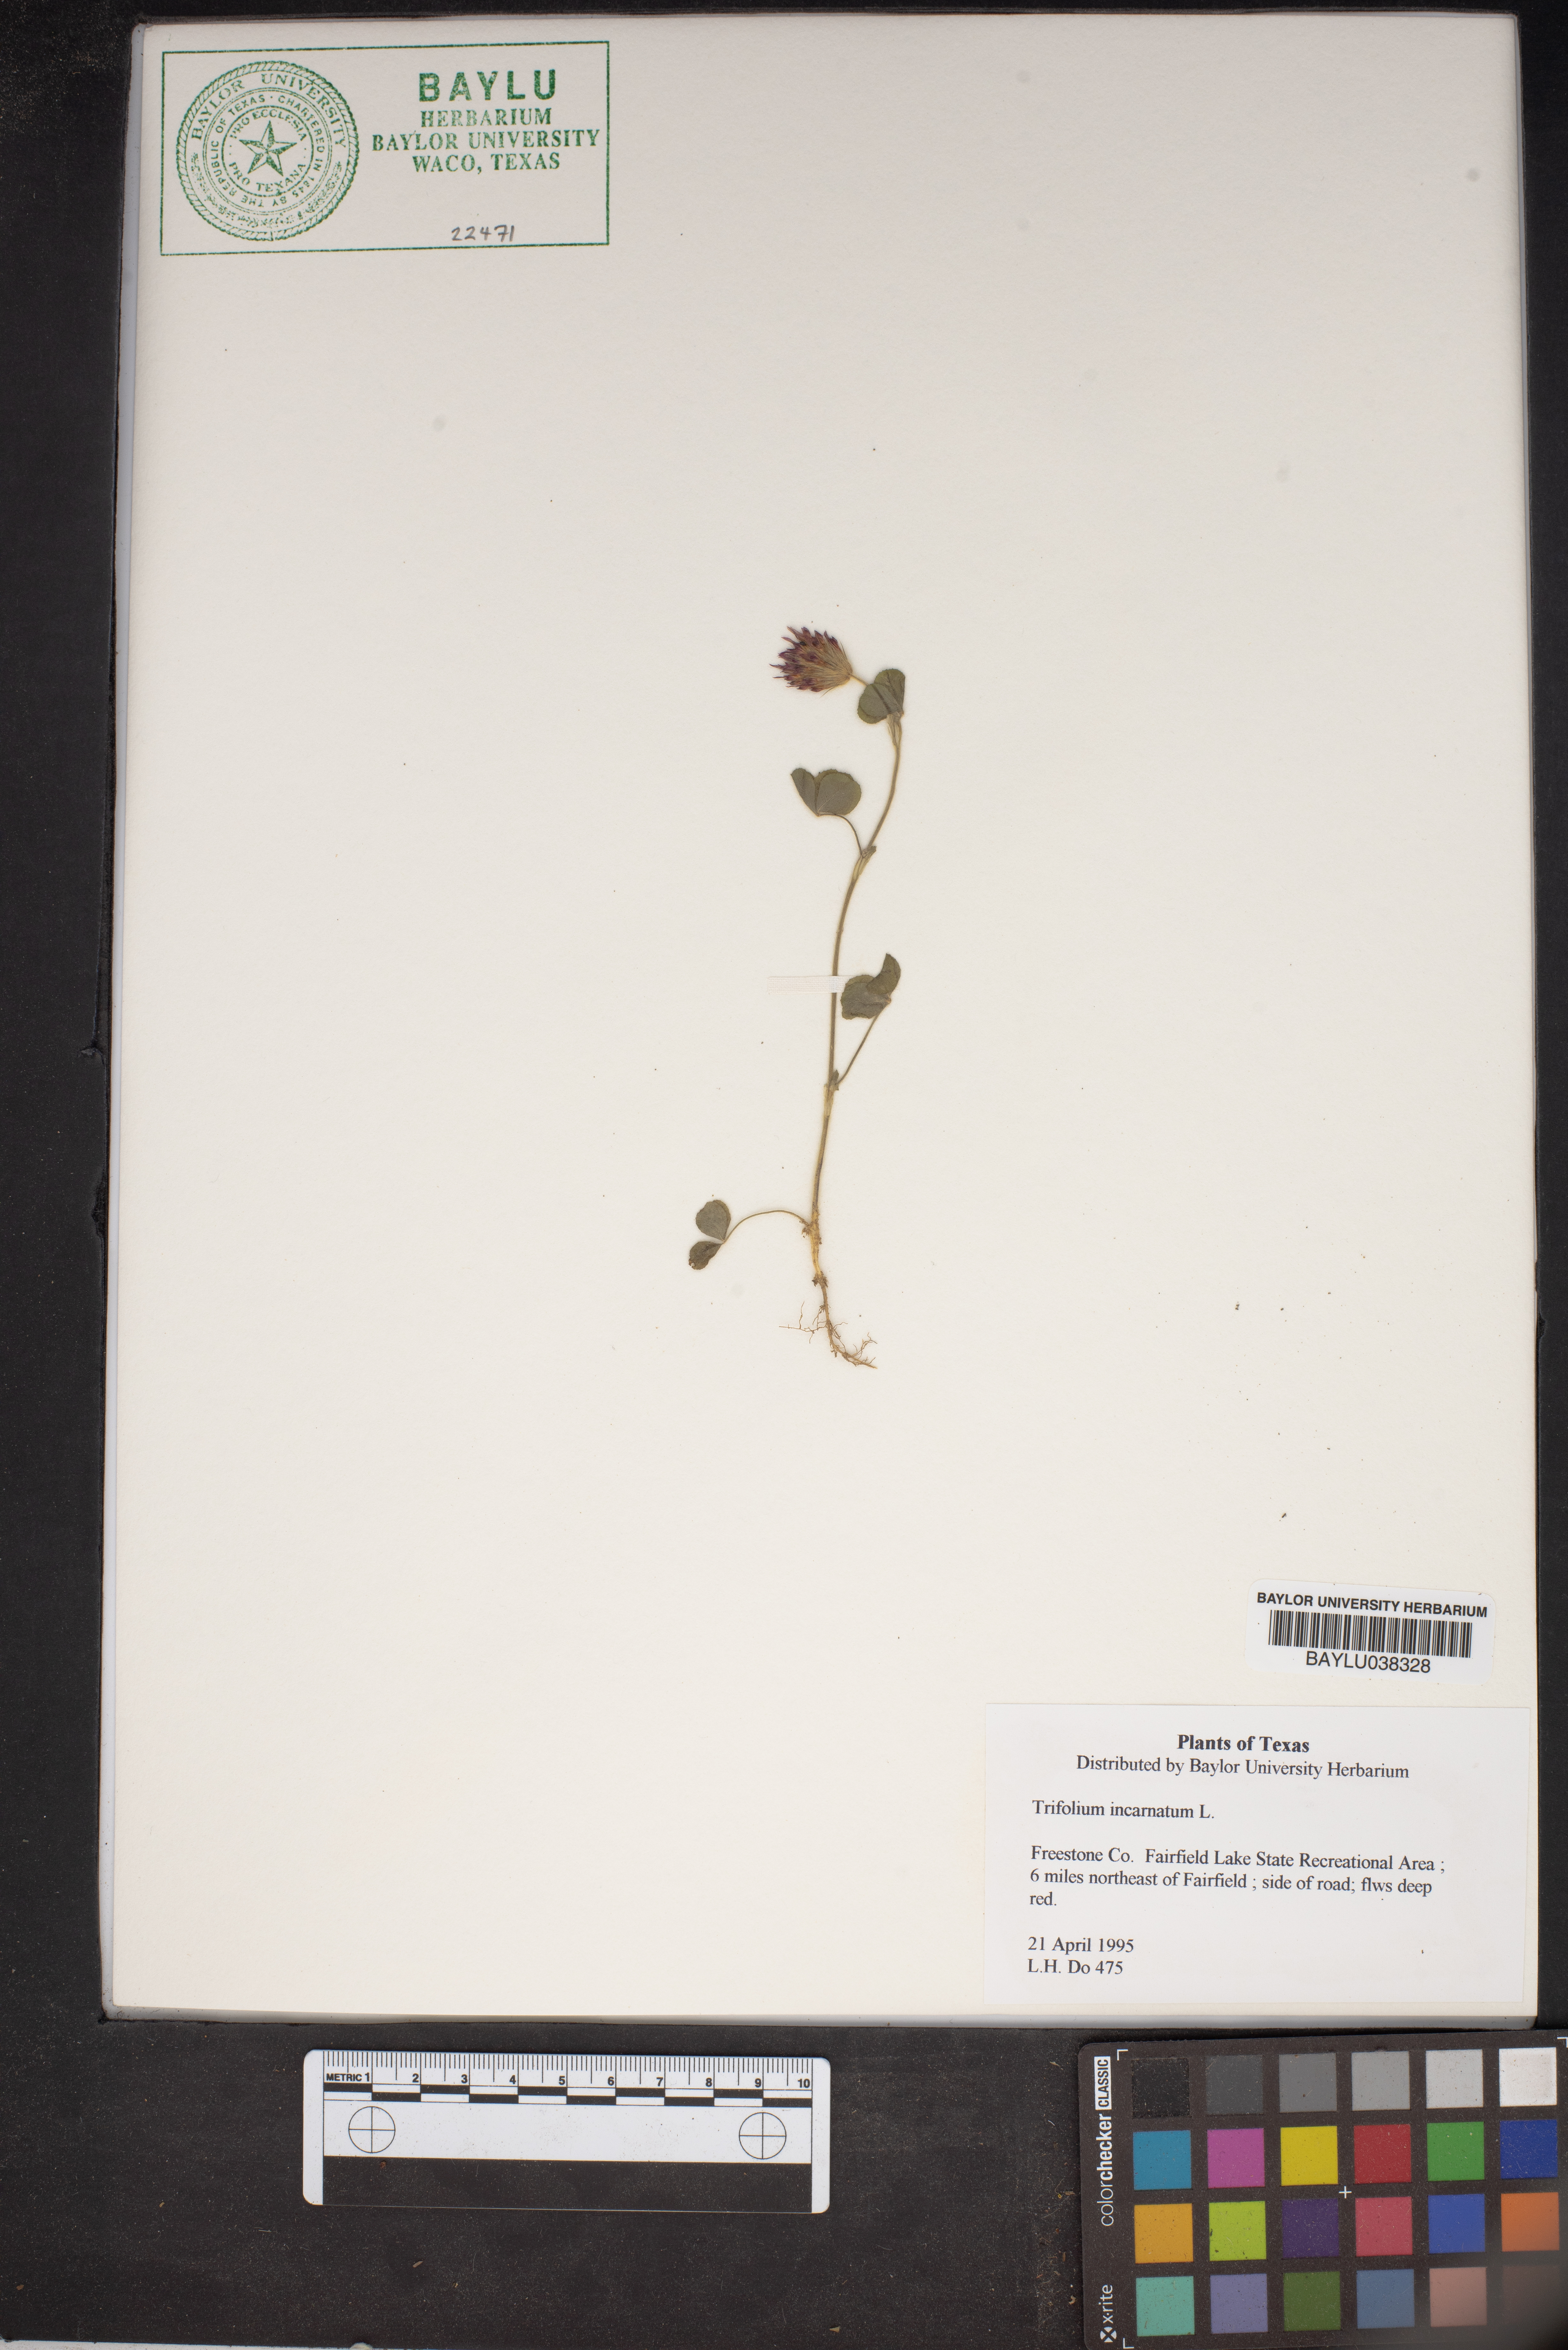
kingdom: Plantae
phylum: Tracheophyta
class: Magnoliopsida
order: Fabales
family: Fabaceae
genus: Trifolium
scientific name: Trifolium incarnatum
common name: Crimson clover
